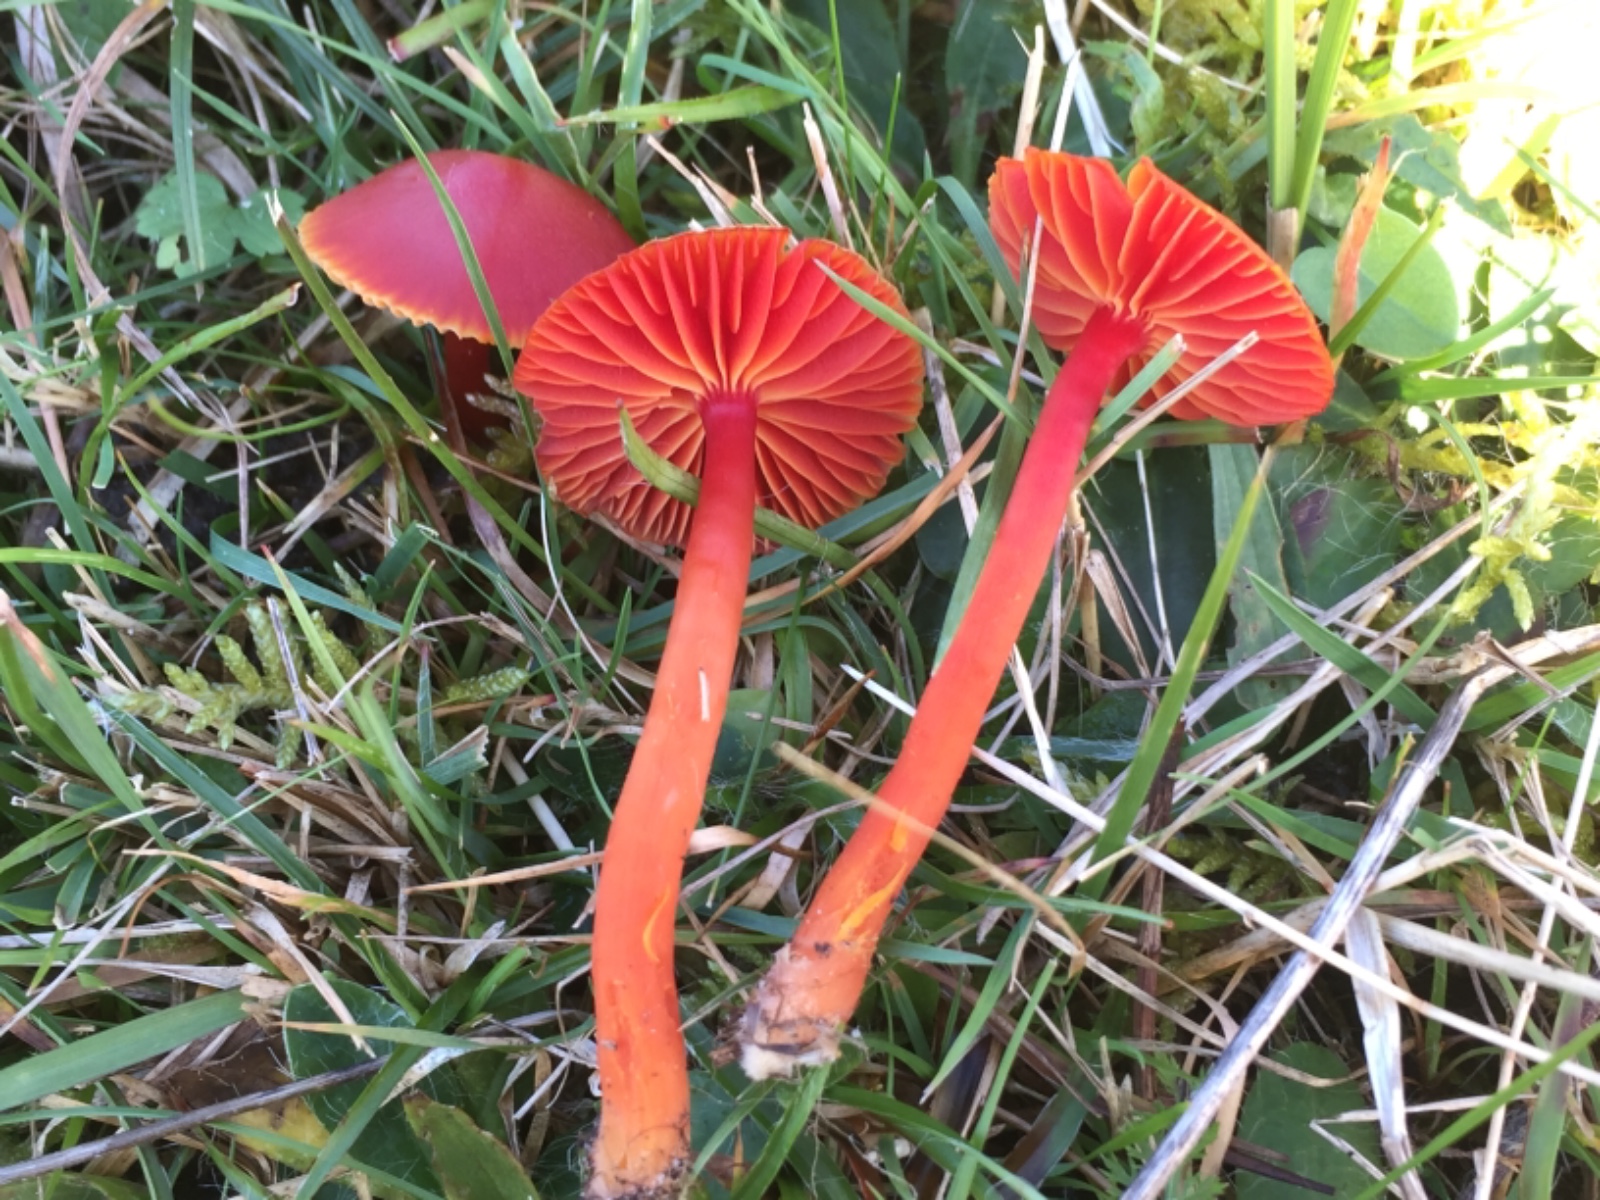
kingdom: Fungi
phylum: Basidiomycota
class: Agaricomycetes
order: Agaricales
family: Hygrophoraceae
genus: Hygrocybe
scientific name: Hygrocybe coccinea
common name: cinnober-vokshat
